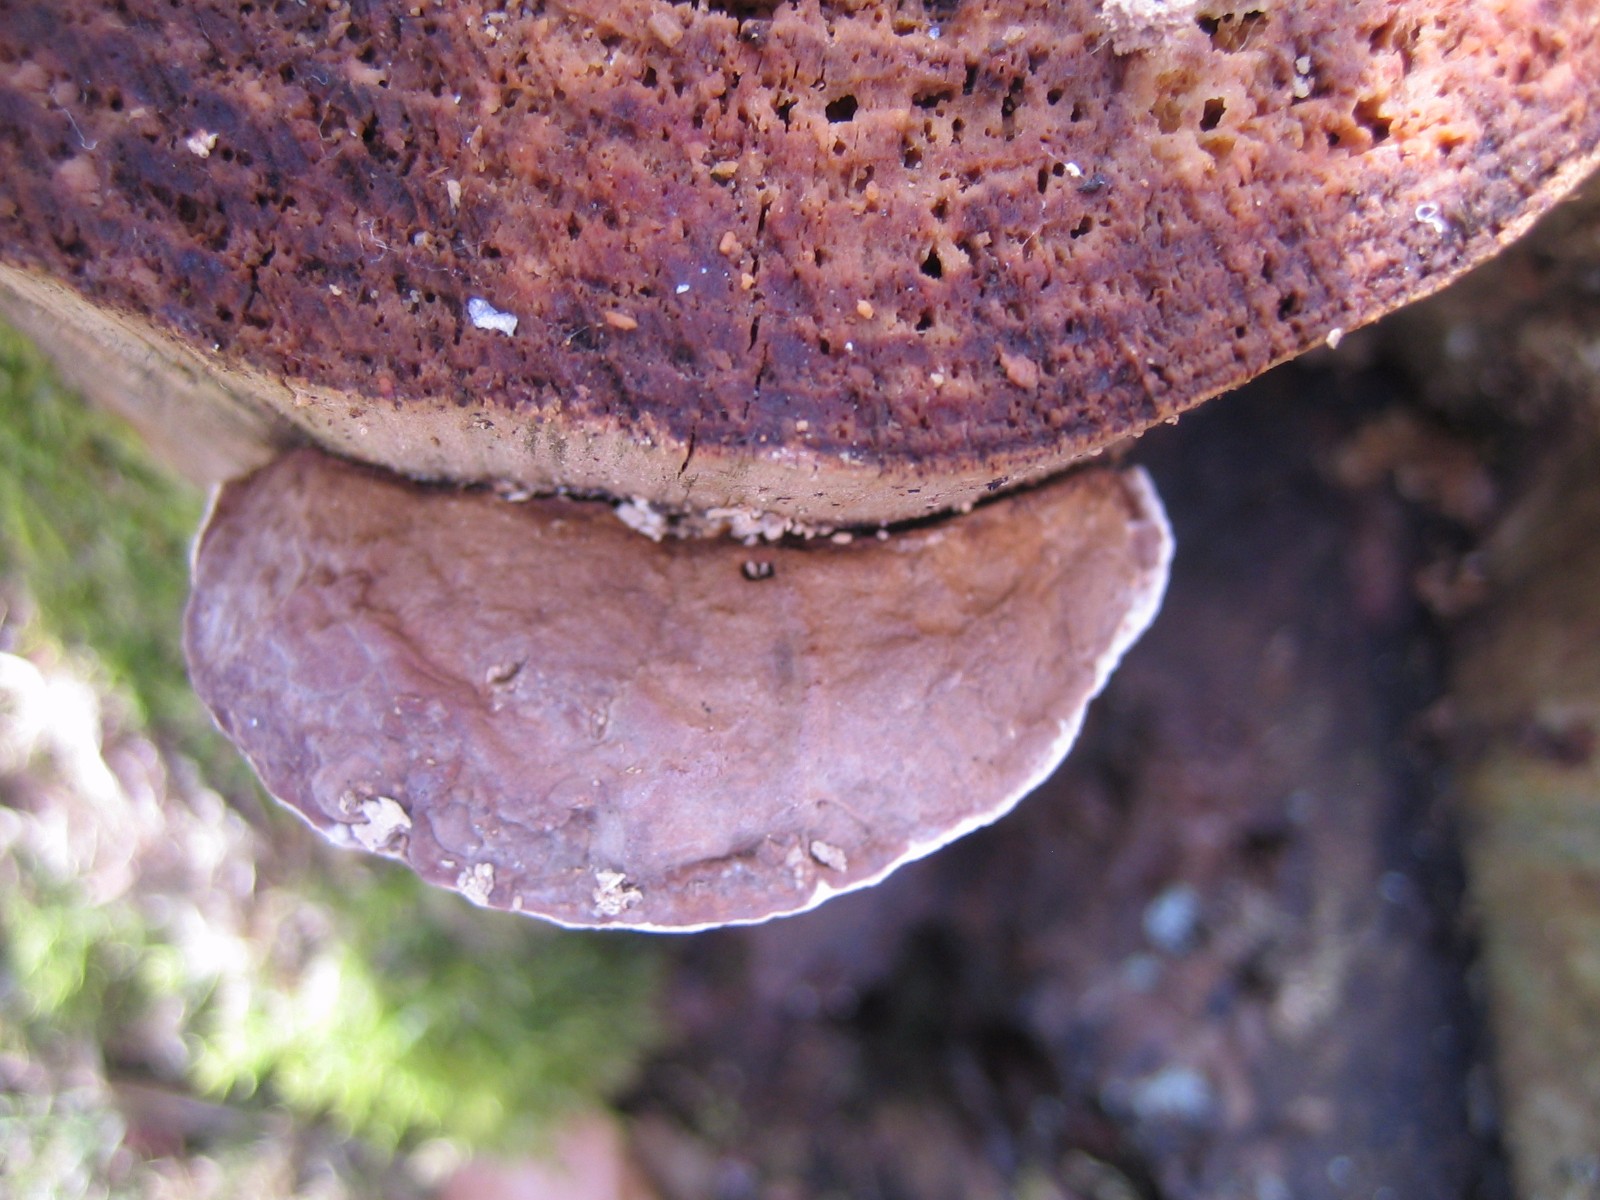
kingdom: Fungi
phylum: Basidiomycota
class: Agaricomycetes
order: Polyporales
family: Fomitopsidaceae
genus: Fomitopsis
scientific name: Fomitopsis pinicola
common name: randbæltet hovporesvamp
